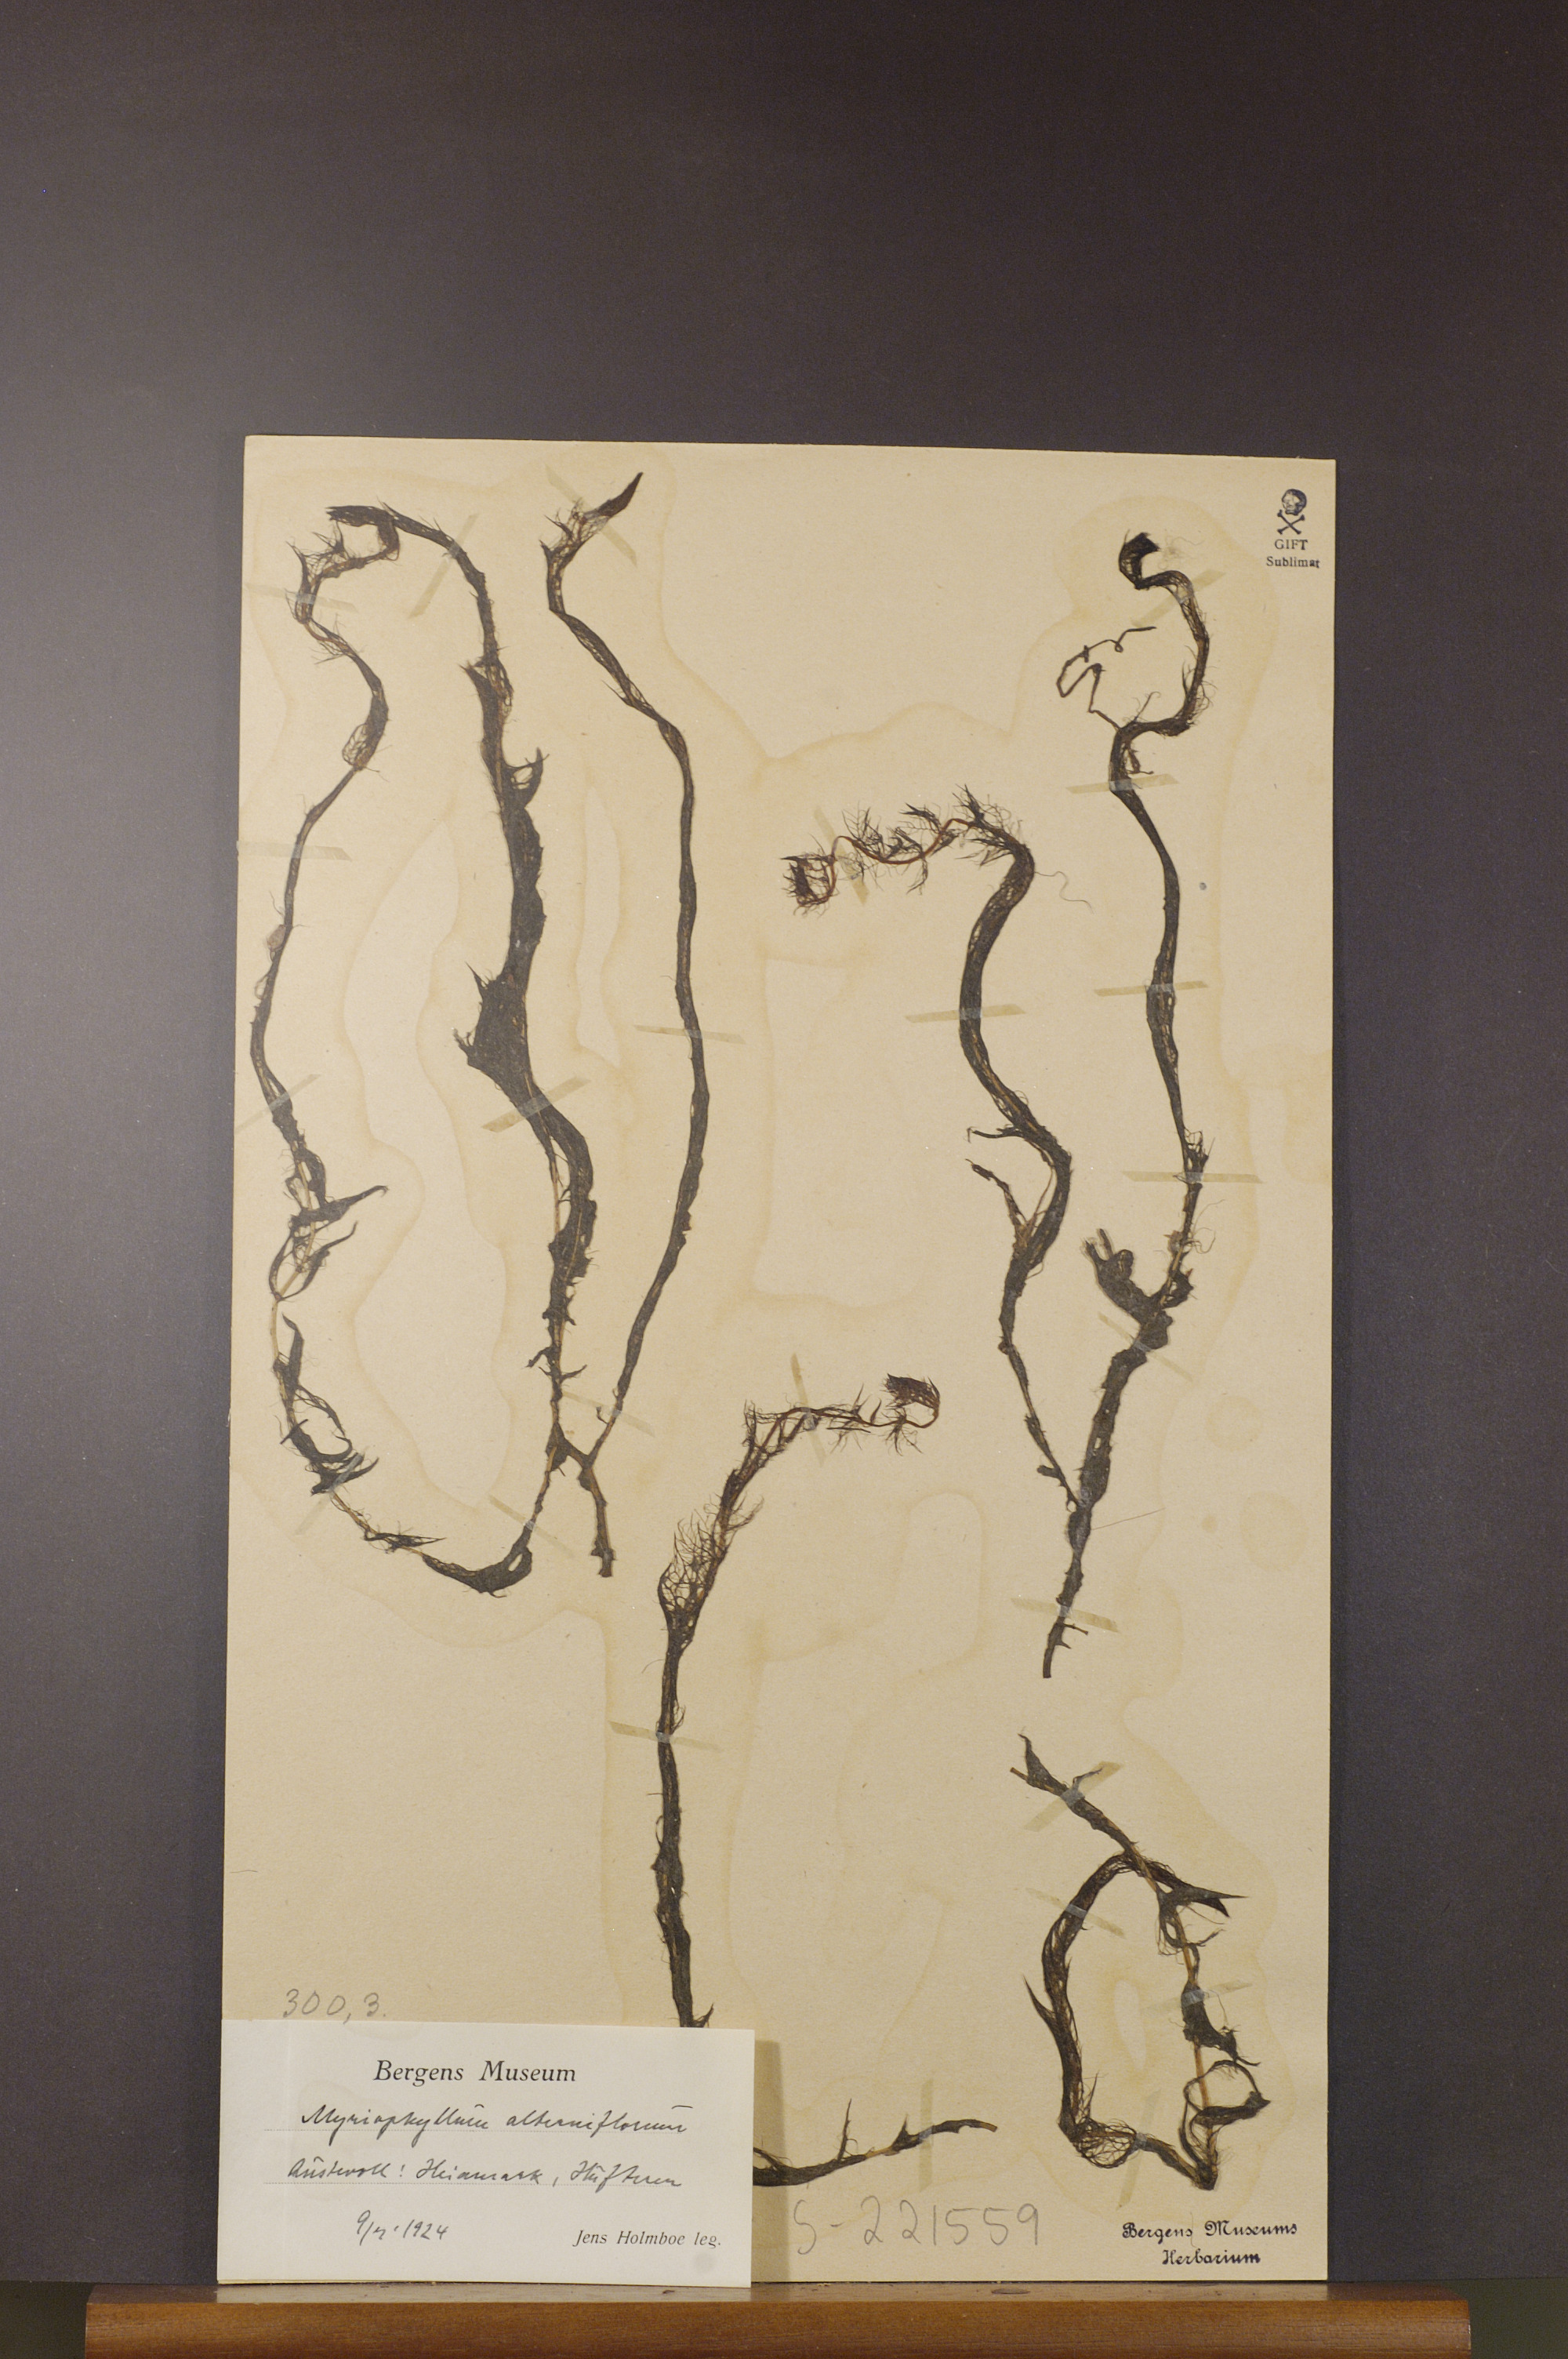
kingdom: Plantae
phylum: Tracheophyta
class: Magnoliopsida
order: Saxifragales
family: Haloragaceae
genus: Myriophyllum
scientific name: Myriophyllum alterniflorum
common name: Alternate water-milfoil
